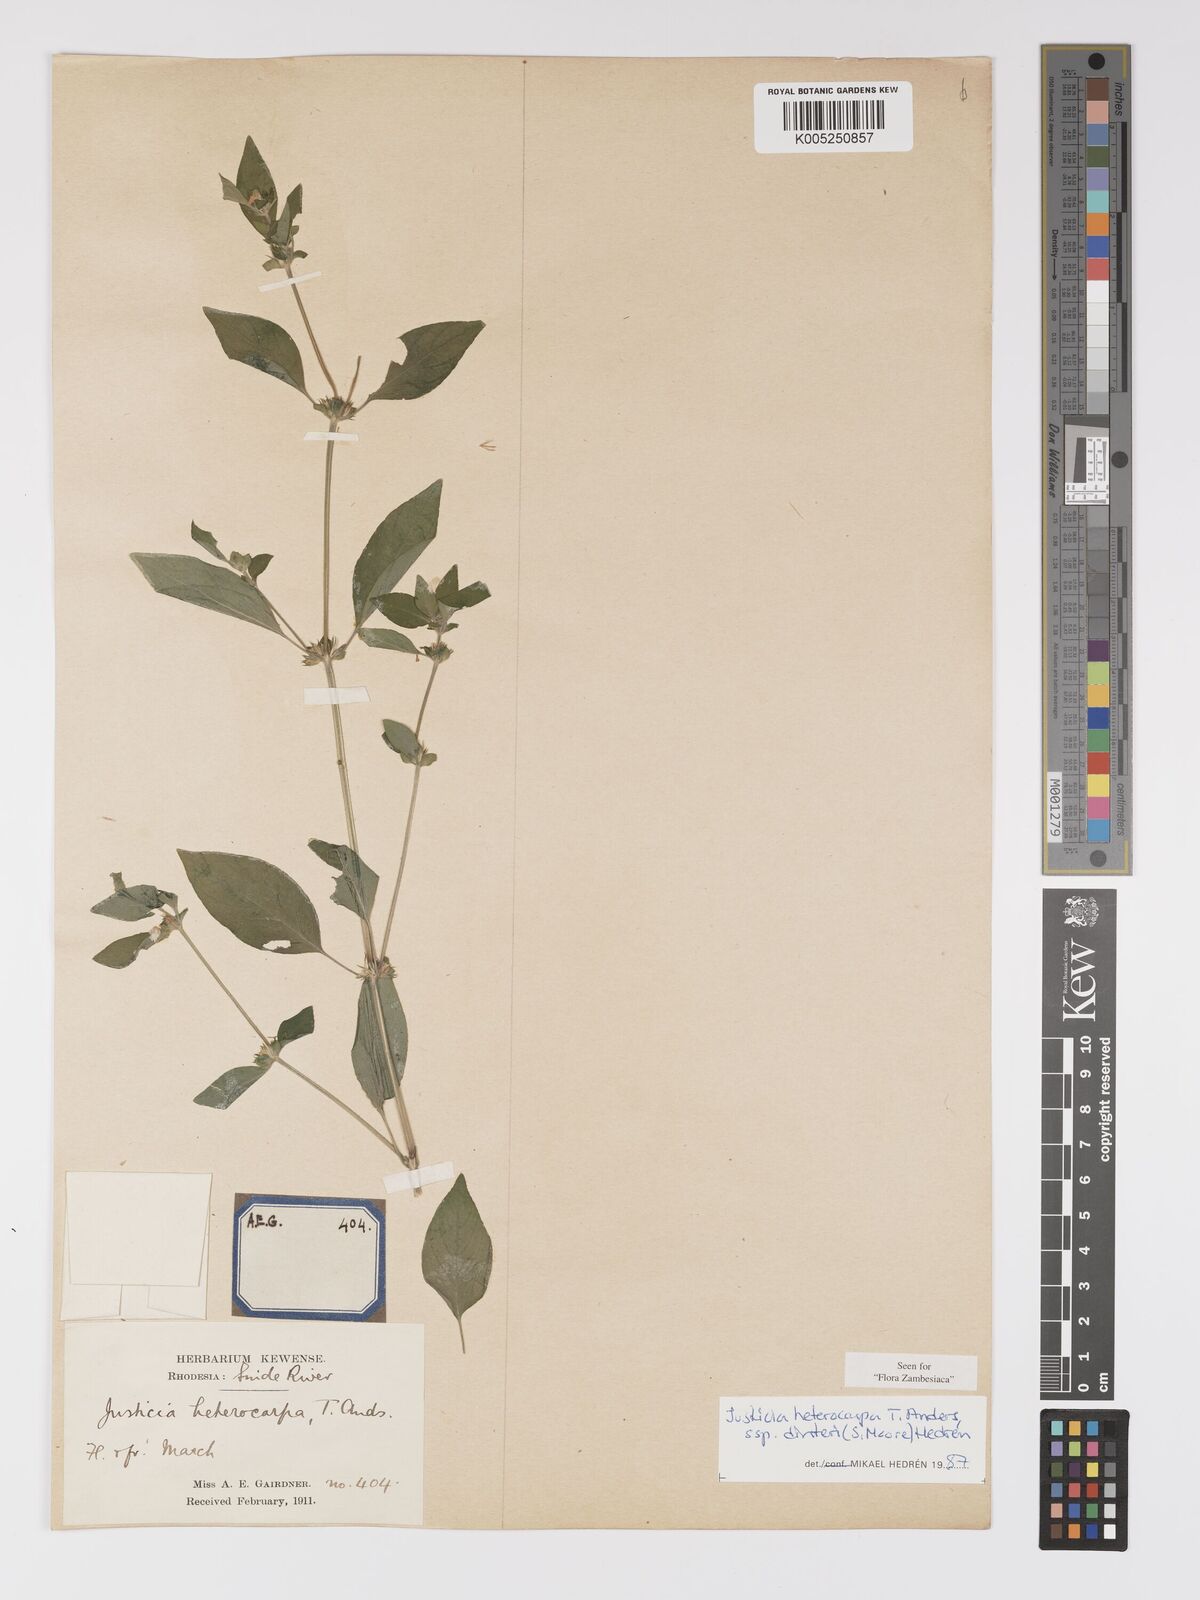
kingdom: Plantae
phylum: Tracheophyta
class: Magnoliopsida
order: Lamiales
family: Acanthaceae
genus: Justicia
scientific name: Justicia heterocarpa
